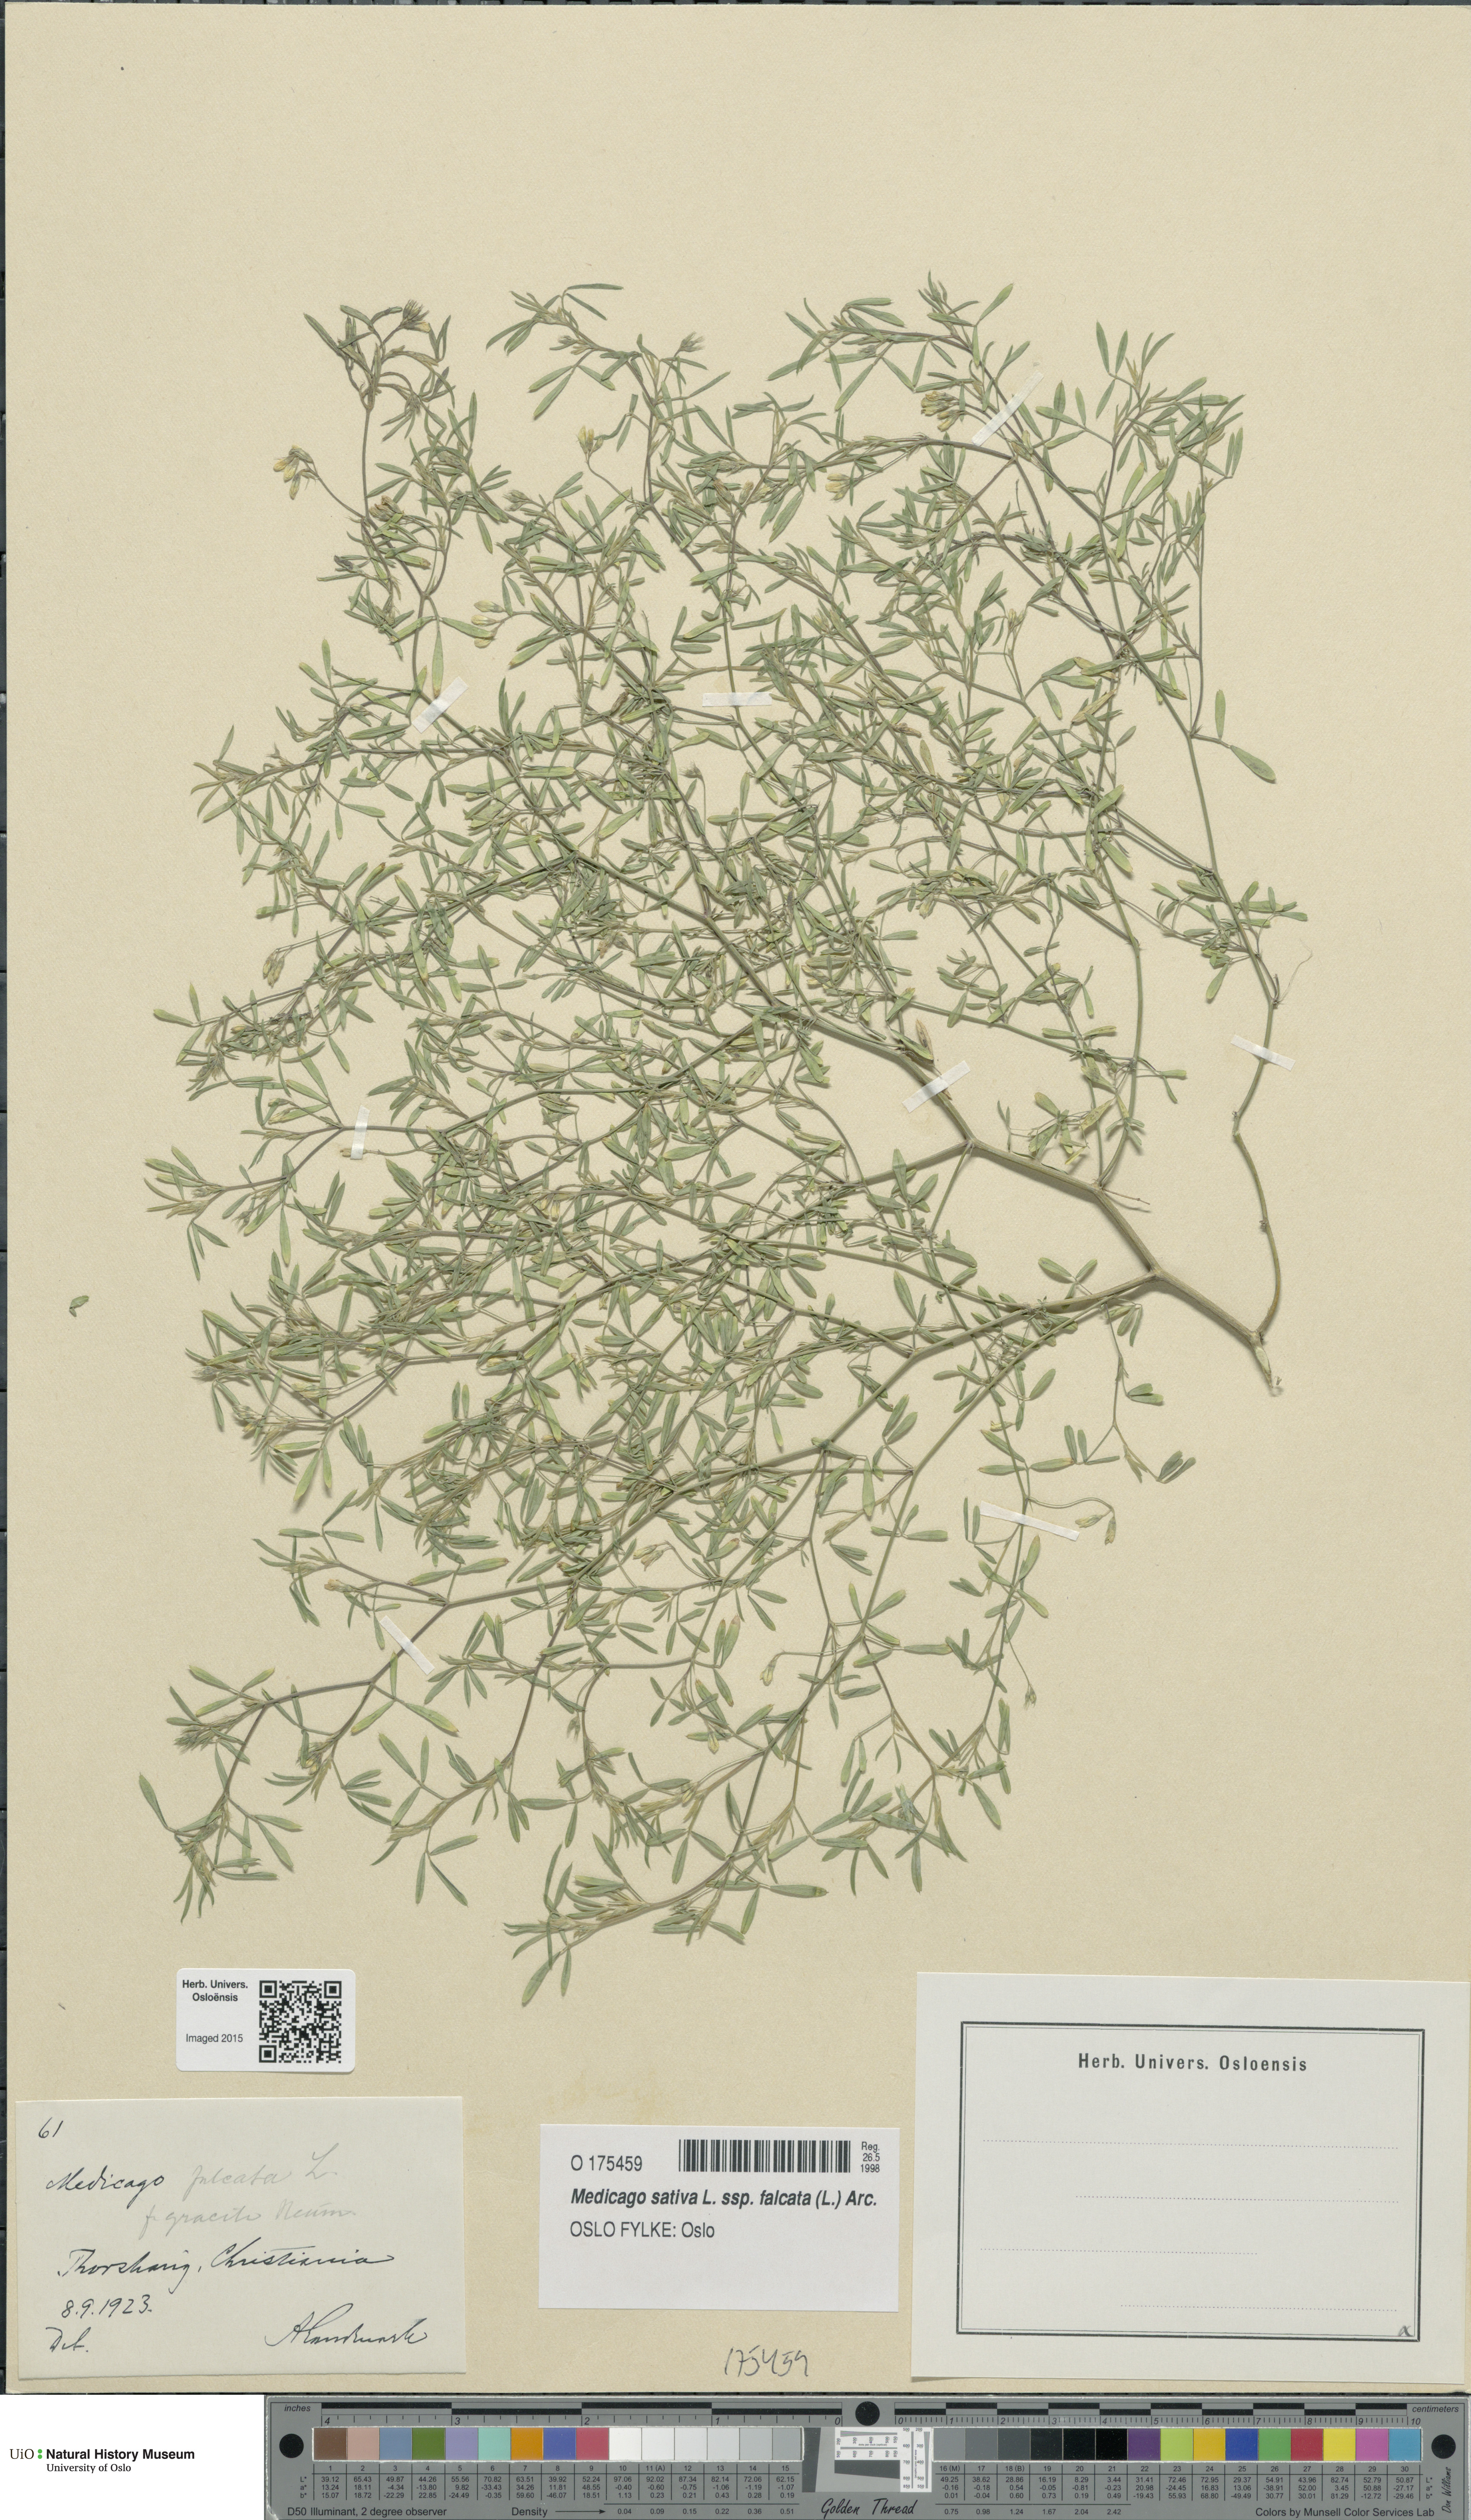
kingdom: Plantae
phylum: Tracheophyta
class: Magnoliopsida
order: Fabales
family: Fabaceae
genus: Medicago
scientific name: Medicago falcata
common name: Sickle medick
